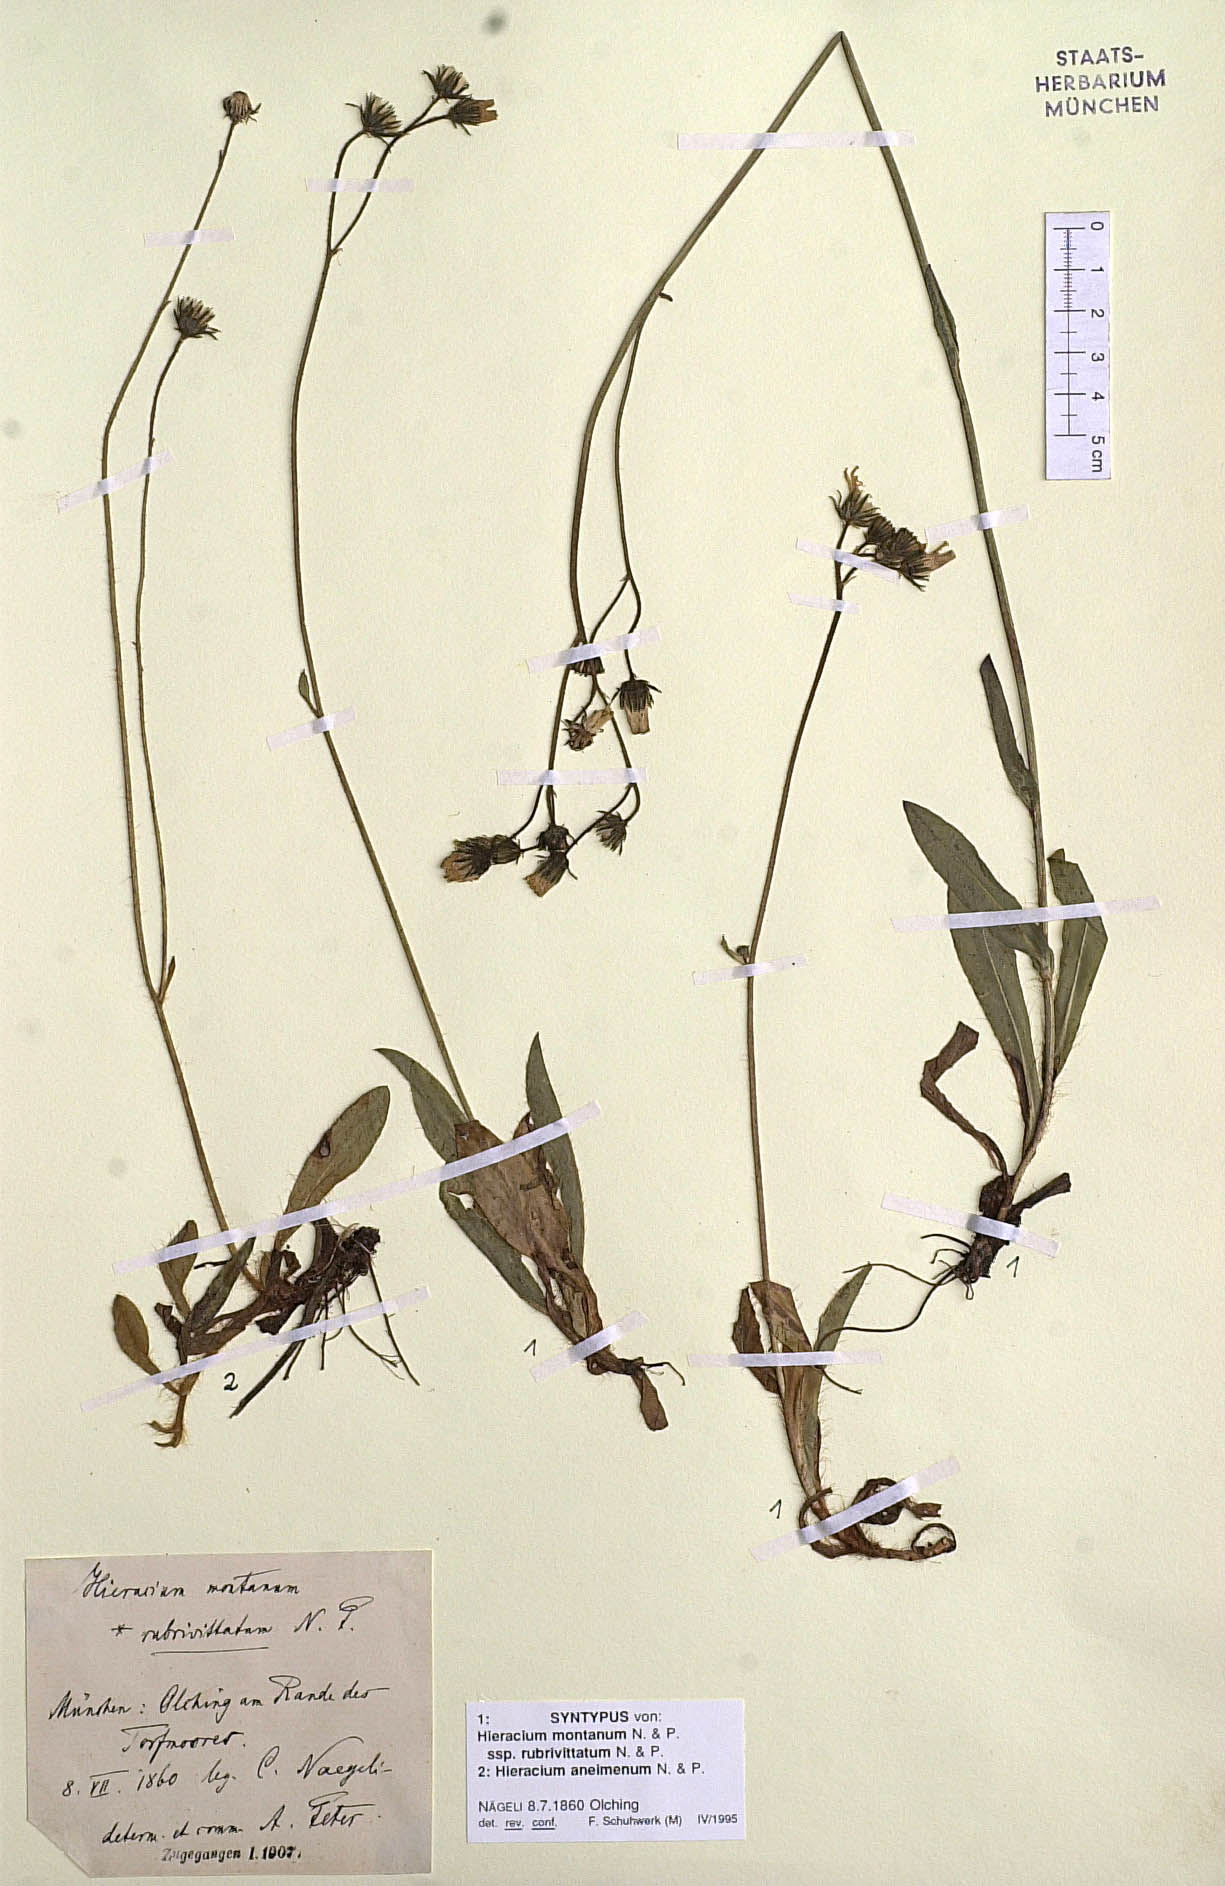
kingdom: Plantae
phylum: Tracheophyta
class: Magnoliopsida
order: Asterales
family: Asteraceae
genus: Pilosella
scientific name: Pilosella chomatophila
